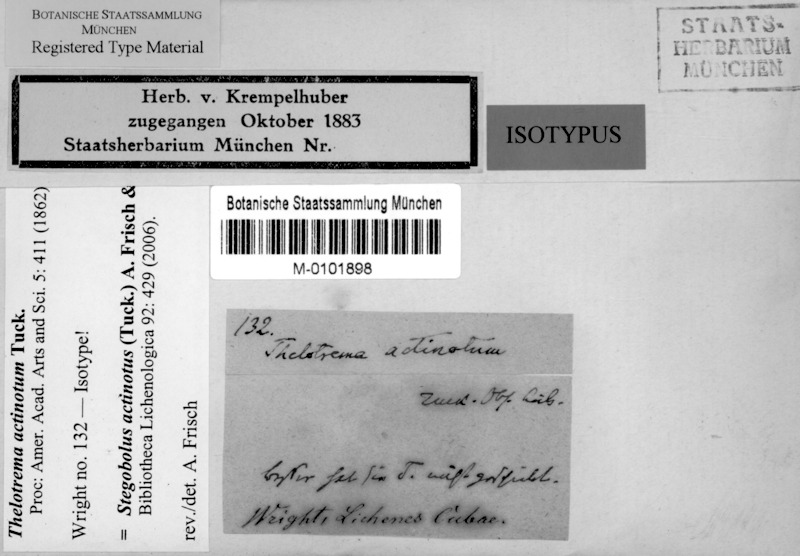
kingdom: Fungi
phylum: Ascomycota
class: Lecanoromycetes
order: Ostropales
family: Graphidaceae
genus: Stegobolus
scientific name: Stegobolus actinotus
